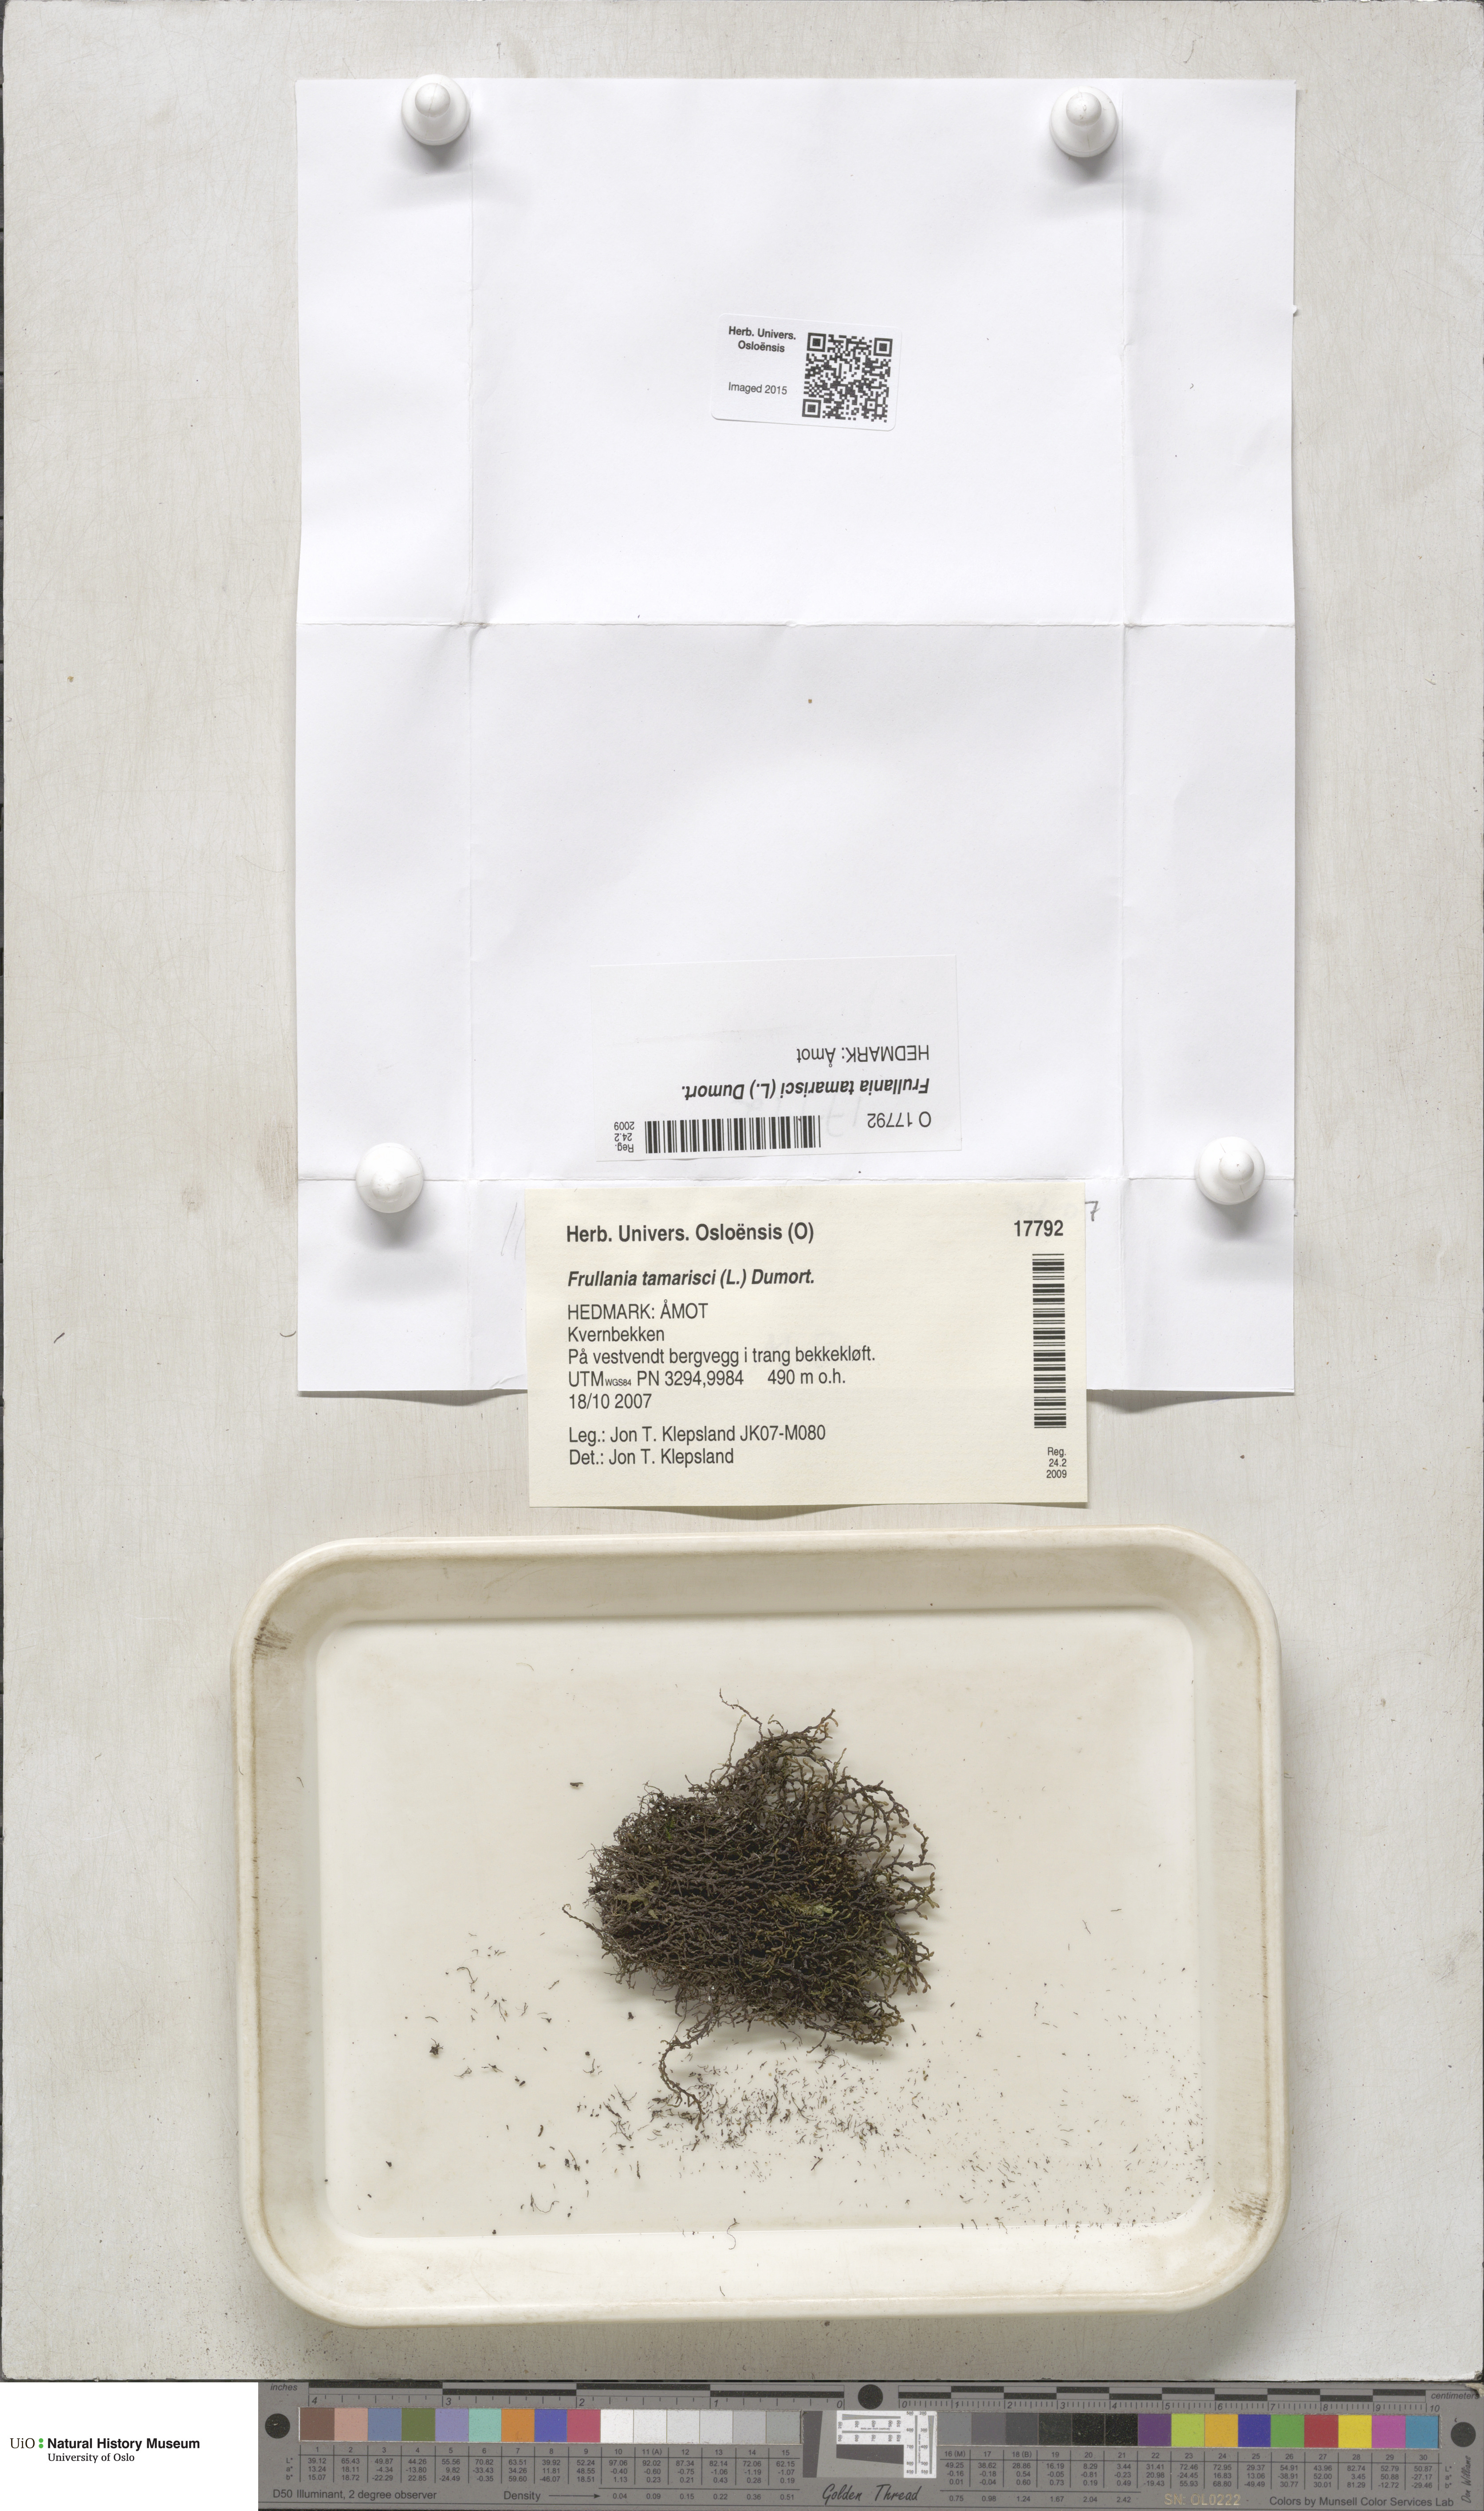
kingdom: Plantae
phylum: Marchantiophyta
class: Jungermanniopsida
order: Porellales
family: Frullaniaceae
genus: Frullania
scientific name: Frullania tamarisci
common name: Tamarisk scalewort
